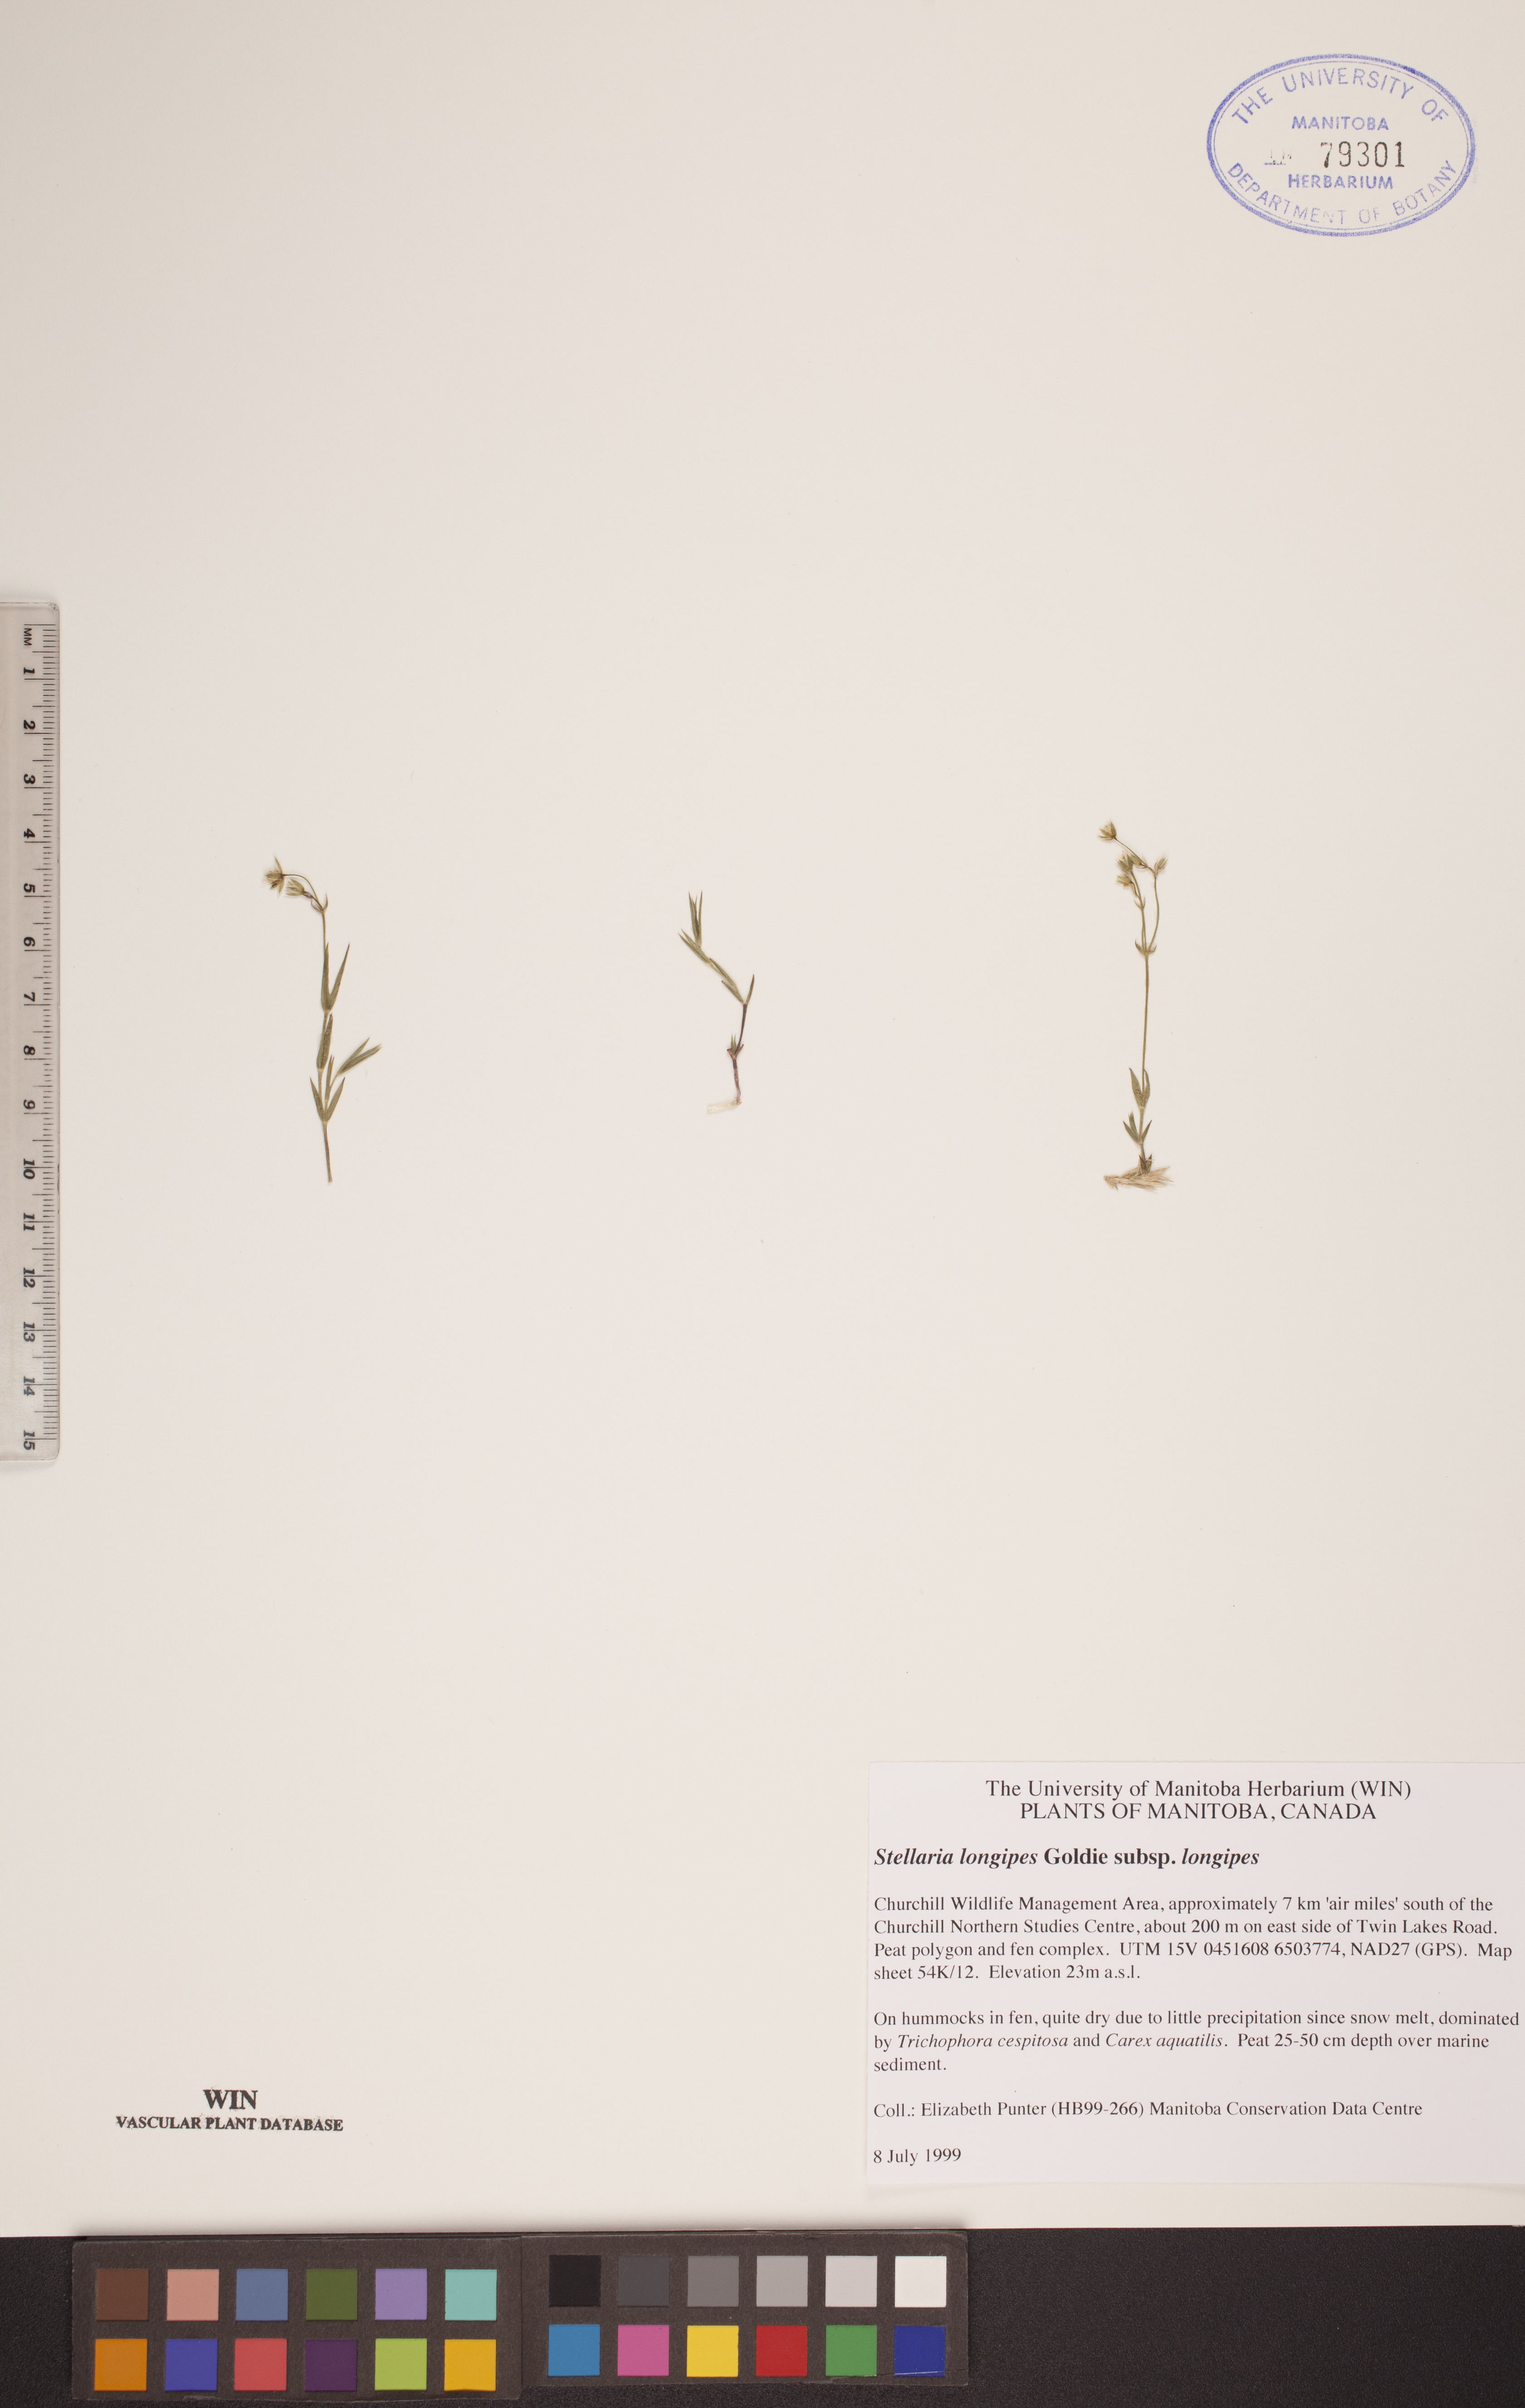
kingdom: Plantae
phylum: Tracheophyta
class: Magnoliopsida
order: Caryophyllales
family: Caryophyllaceae
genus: Stellaria
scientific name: Stellaria longipes
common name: Goldie's starwort
